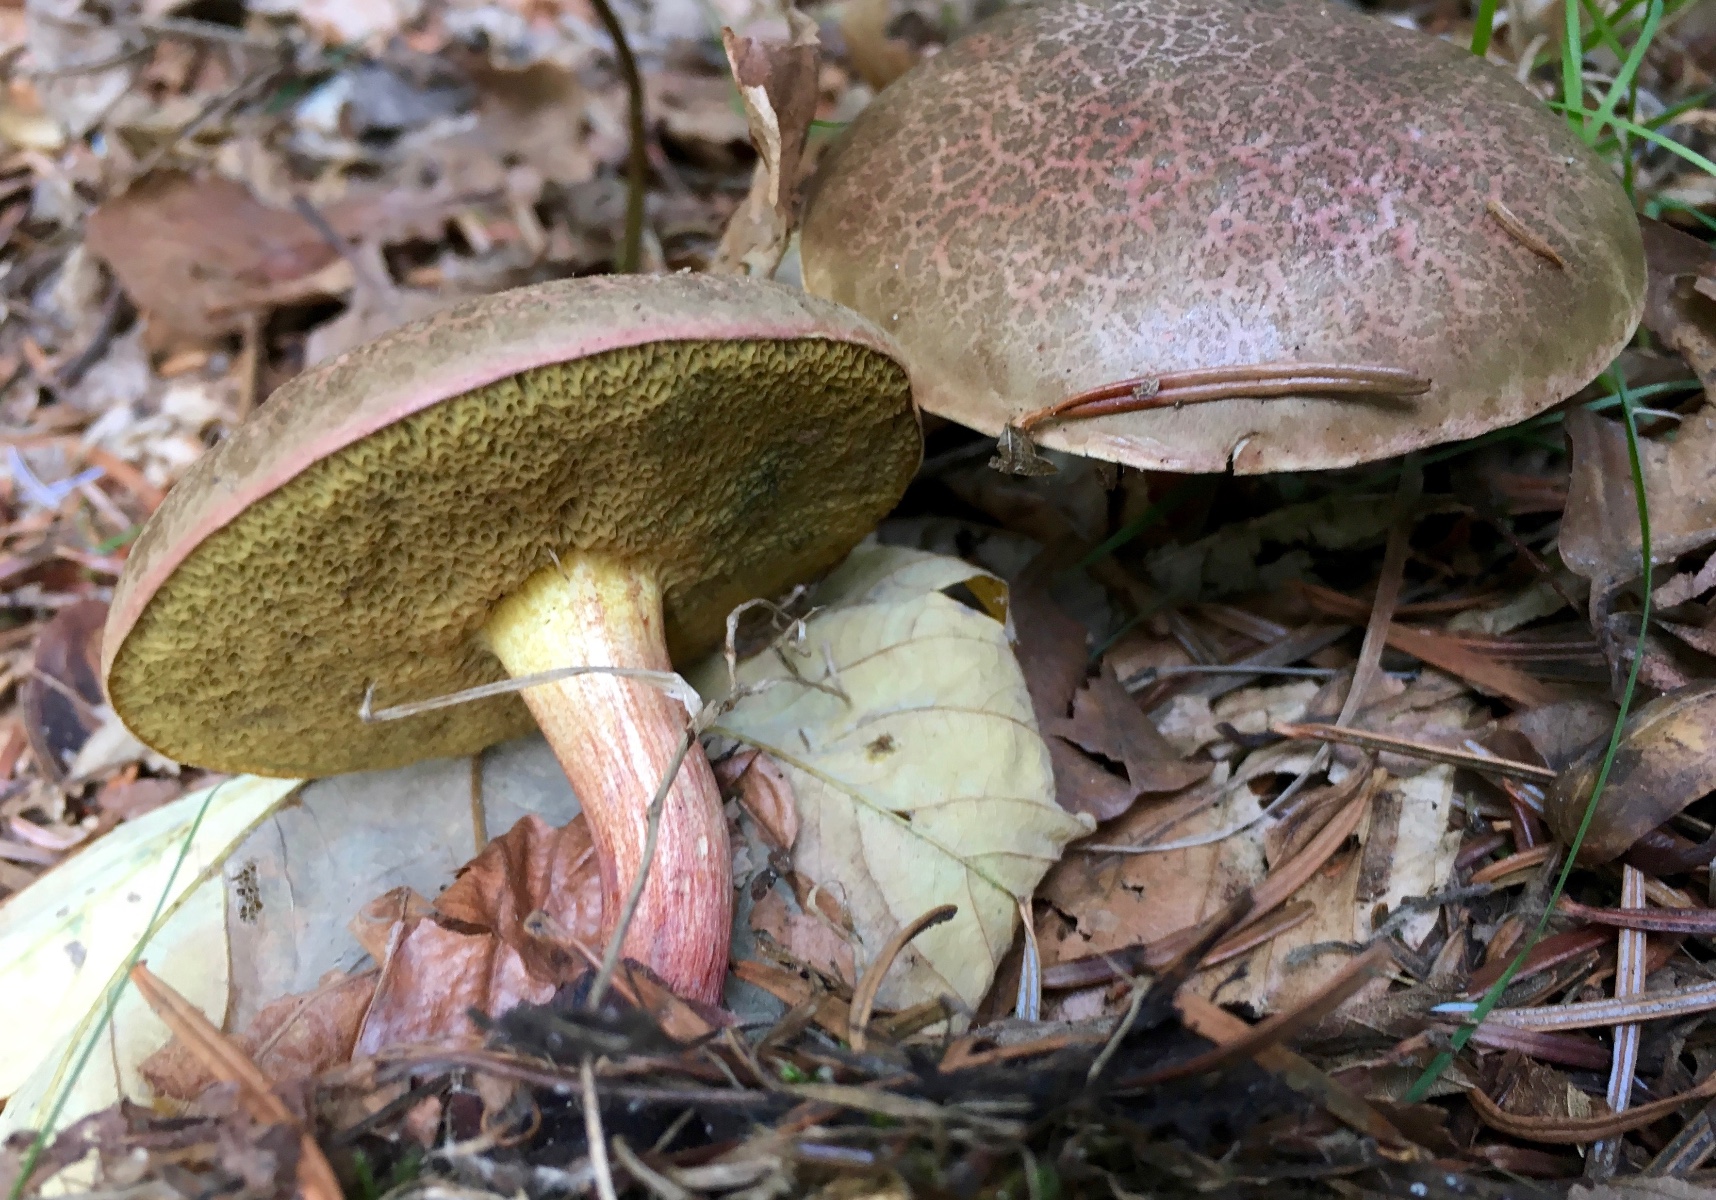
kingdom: Fungi
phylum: Basidiomycota
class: Agaricomycetes
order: Boletales
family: Boletaceae
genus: Xerocomellus
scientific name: Xerocomellus chrysenteron
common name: rødsprukken rørhat
